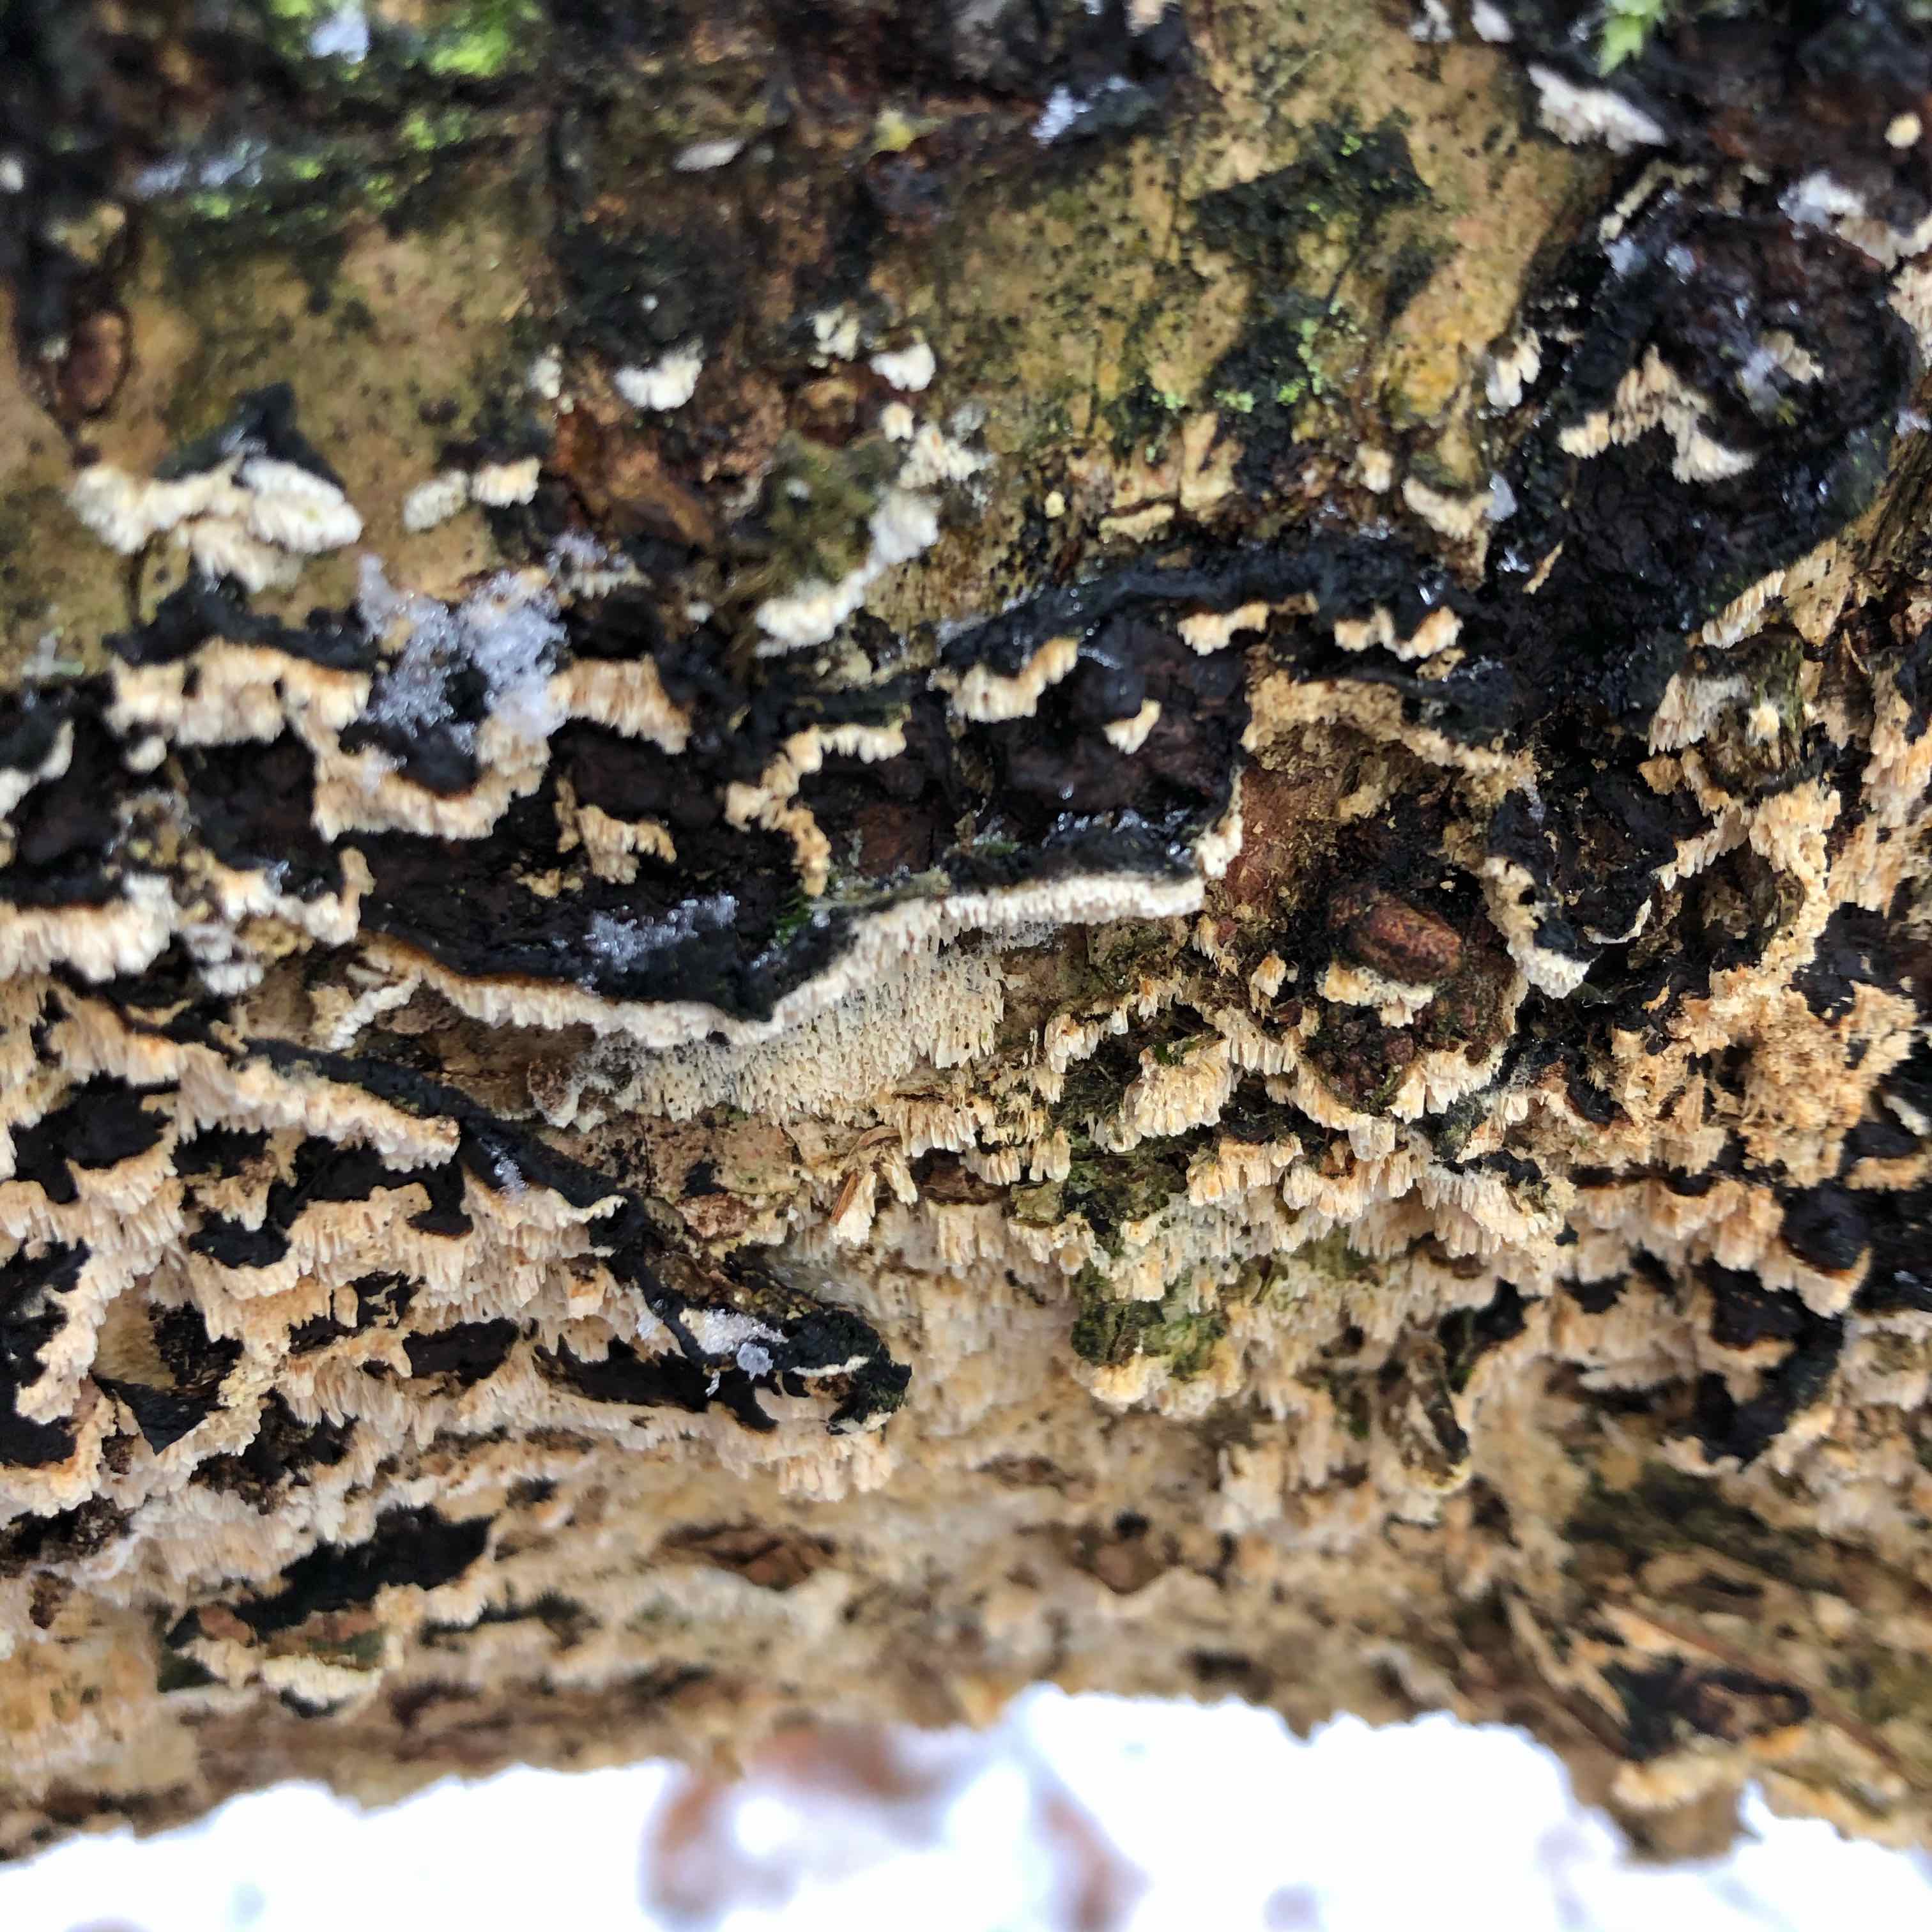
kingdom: Fungi
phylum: Basidiomycota
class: Agaricomycetes
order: Polyporales
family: Polyporaceae
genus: Podofomes
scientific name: Podofomes mollis
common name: blød begporesvamp
